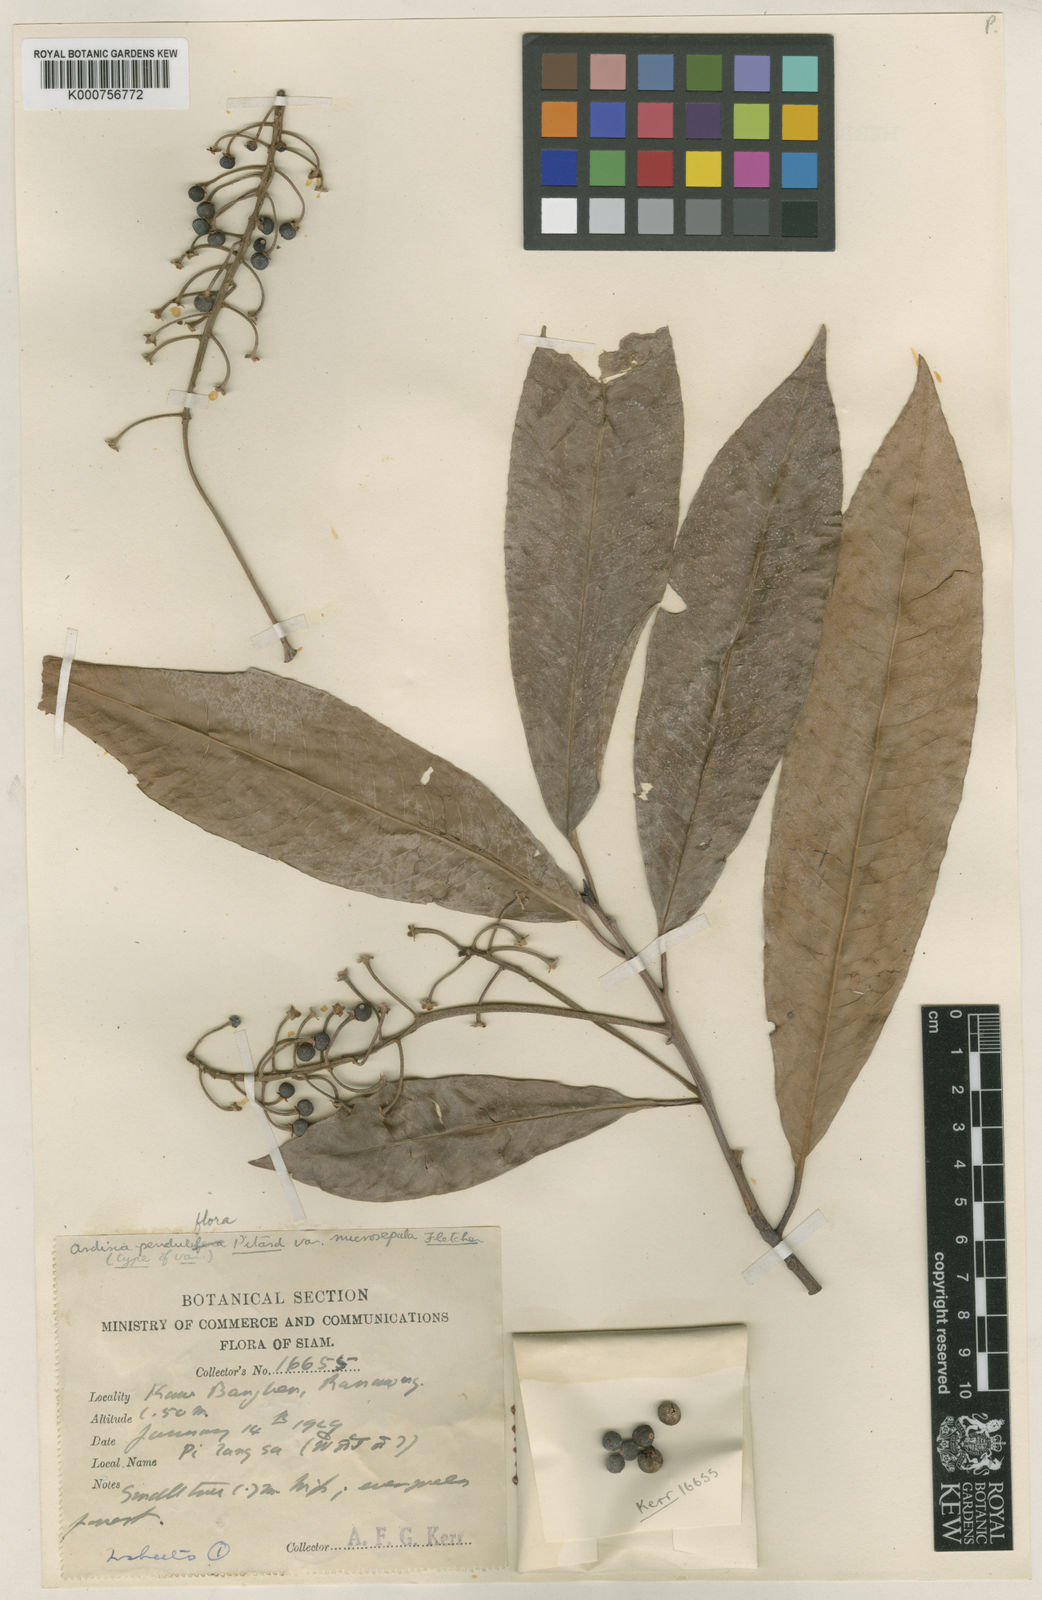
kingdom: Plantae
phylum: Tracheophyta
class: Magnoliopsida
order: Ericales
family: Primulaceae
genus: Ardisia
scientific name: Ardisia
